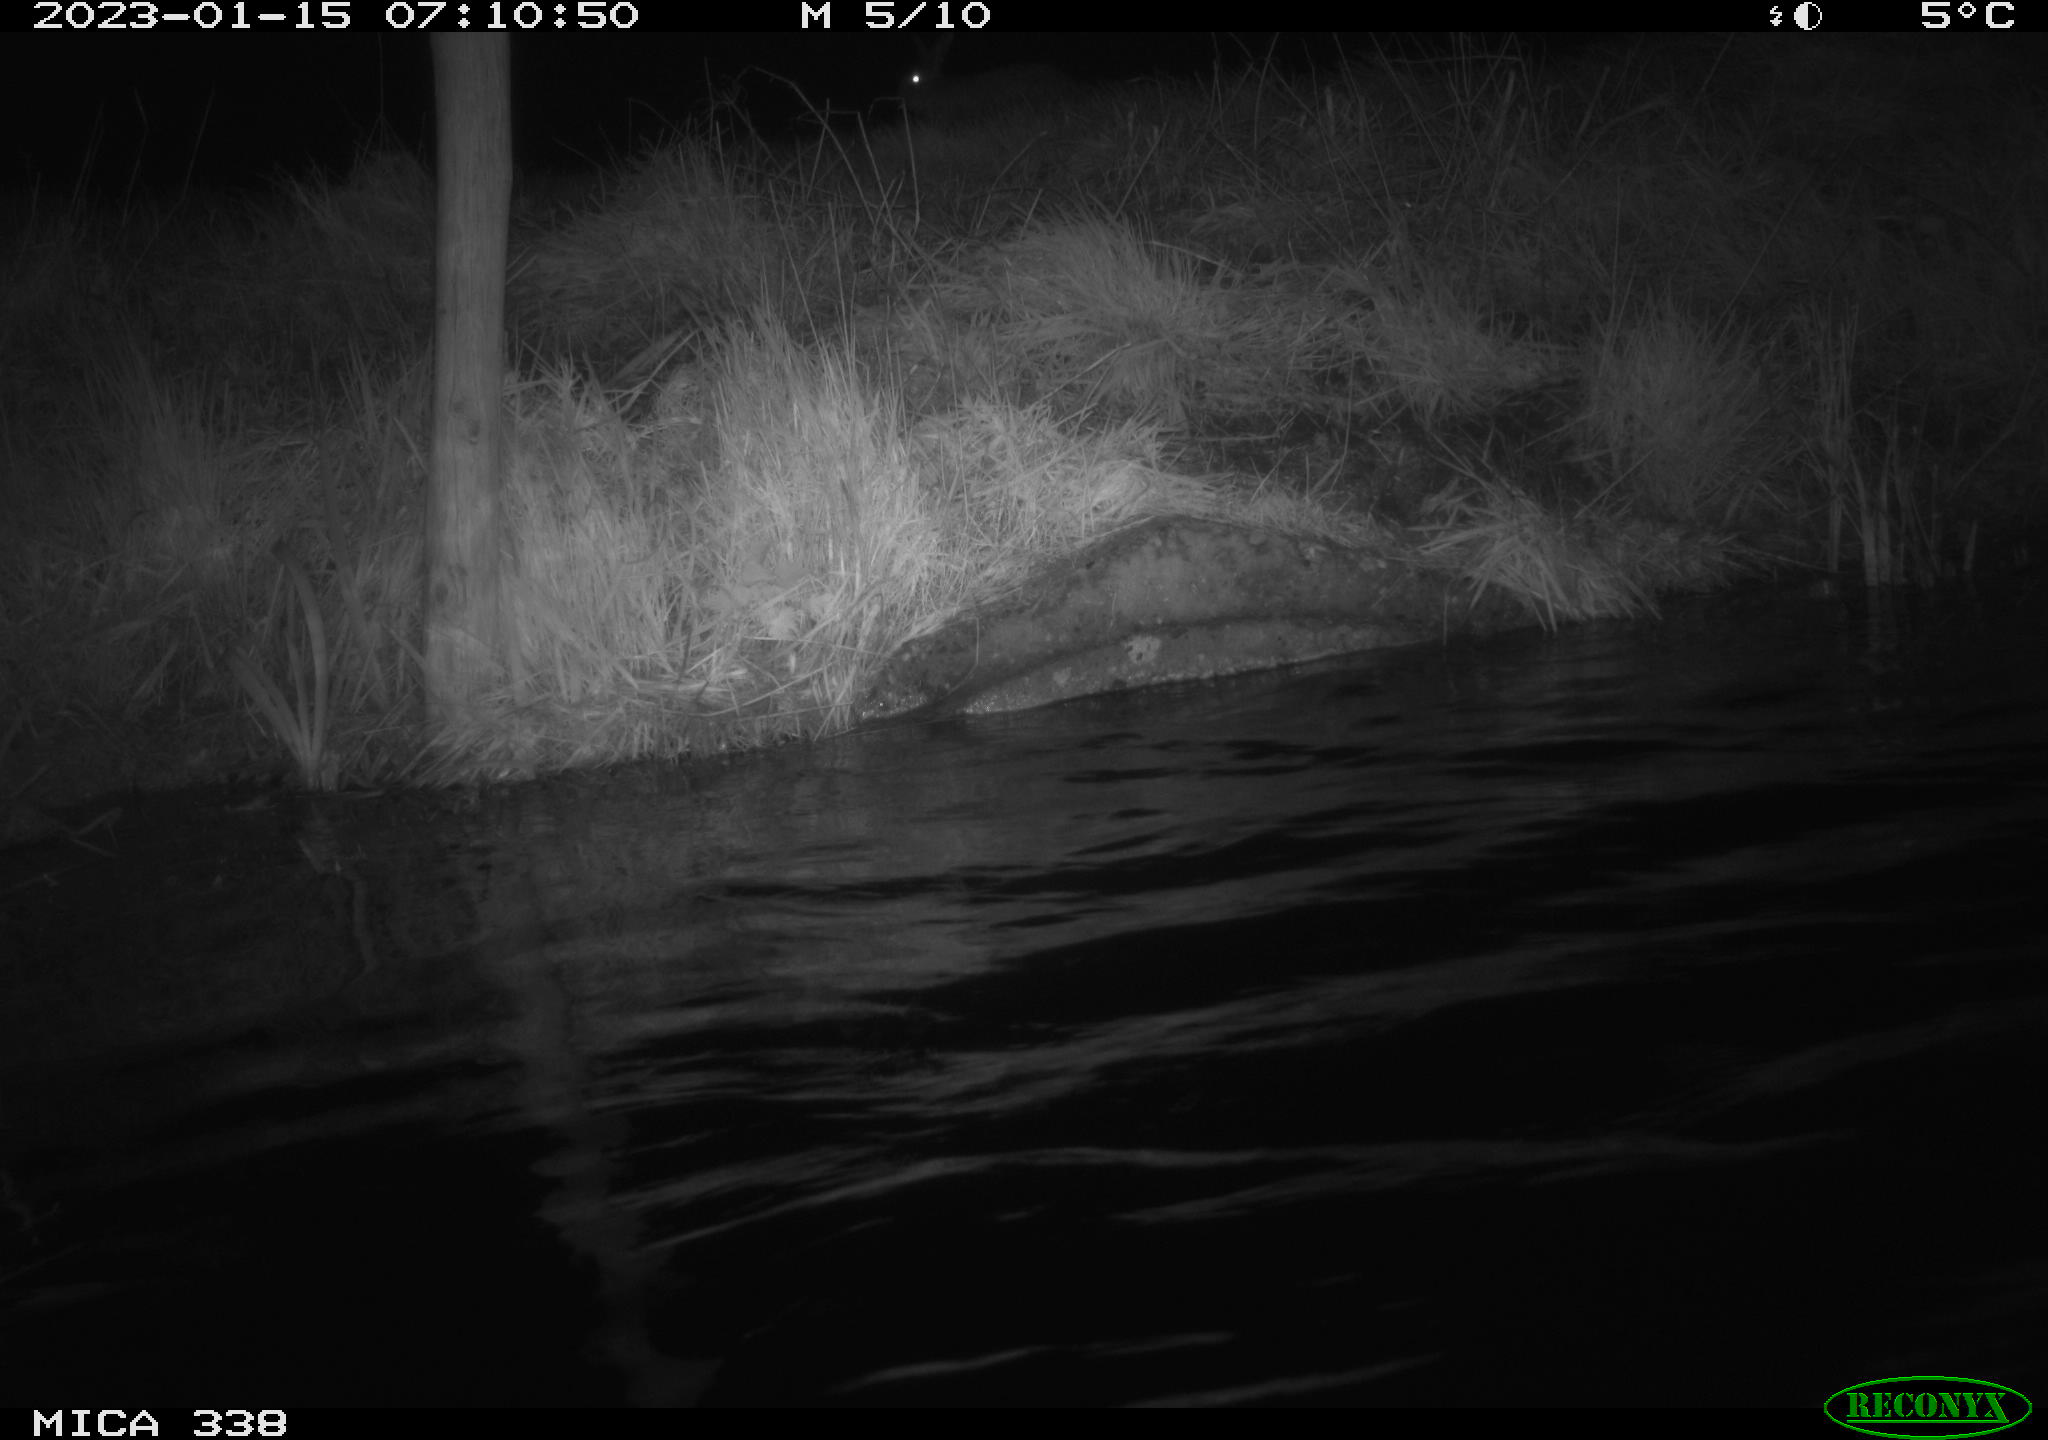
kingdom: Animalia
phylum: Chordata
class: Mammalia
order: Lagomorpha
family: Leporidae
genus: Lepus
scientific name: Lepus europaeus
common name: European hare
